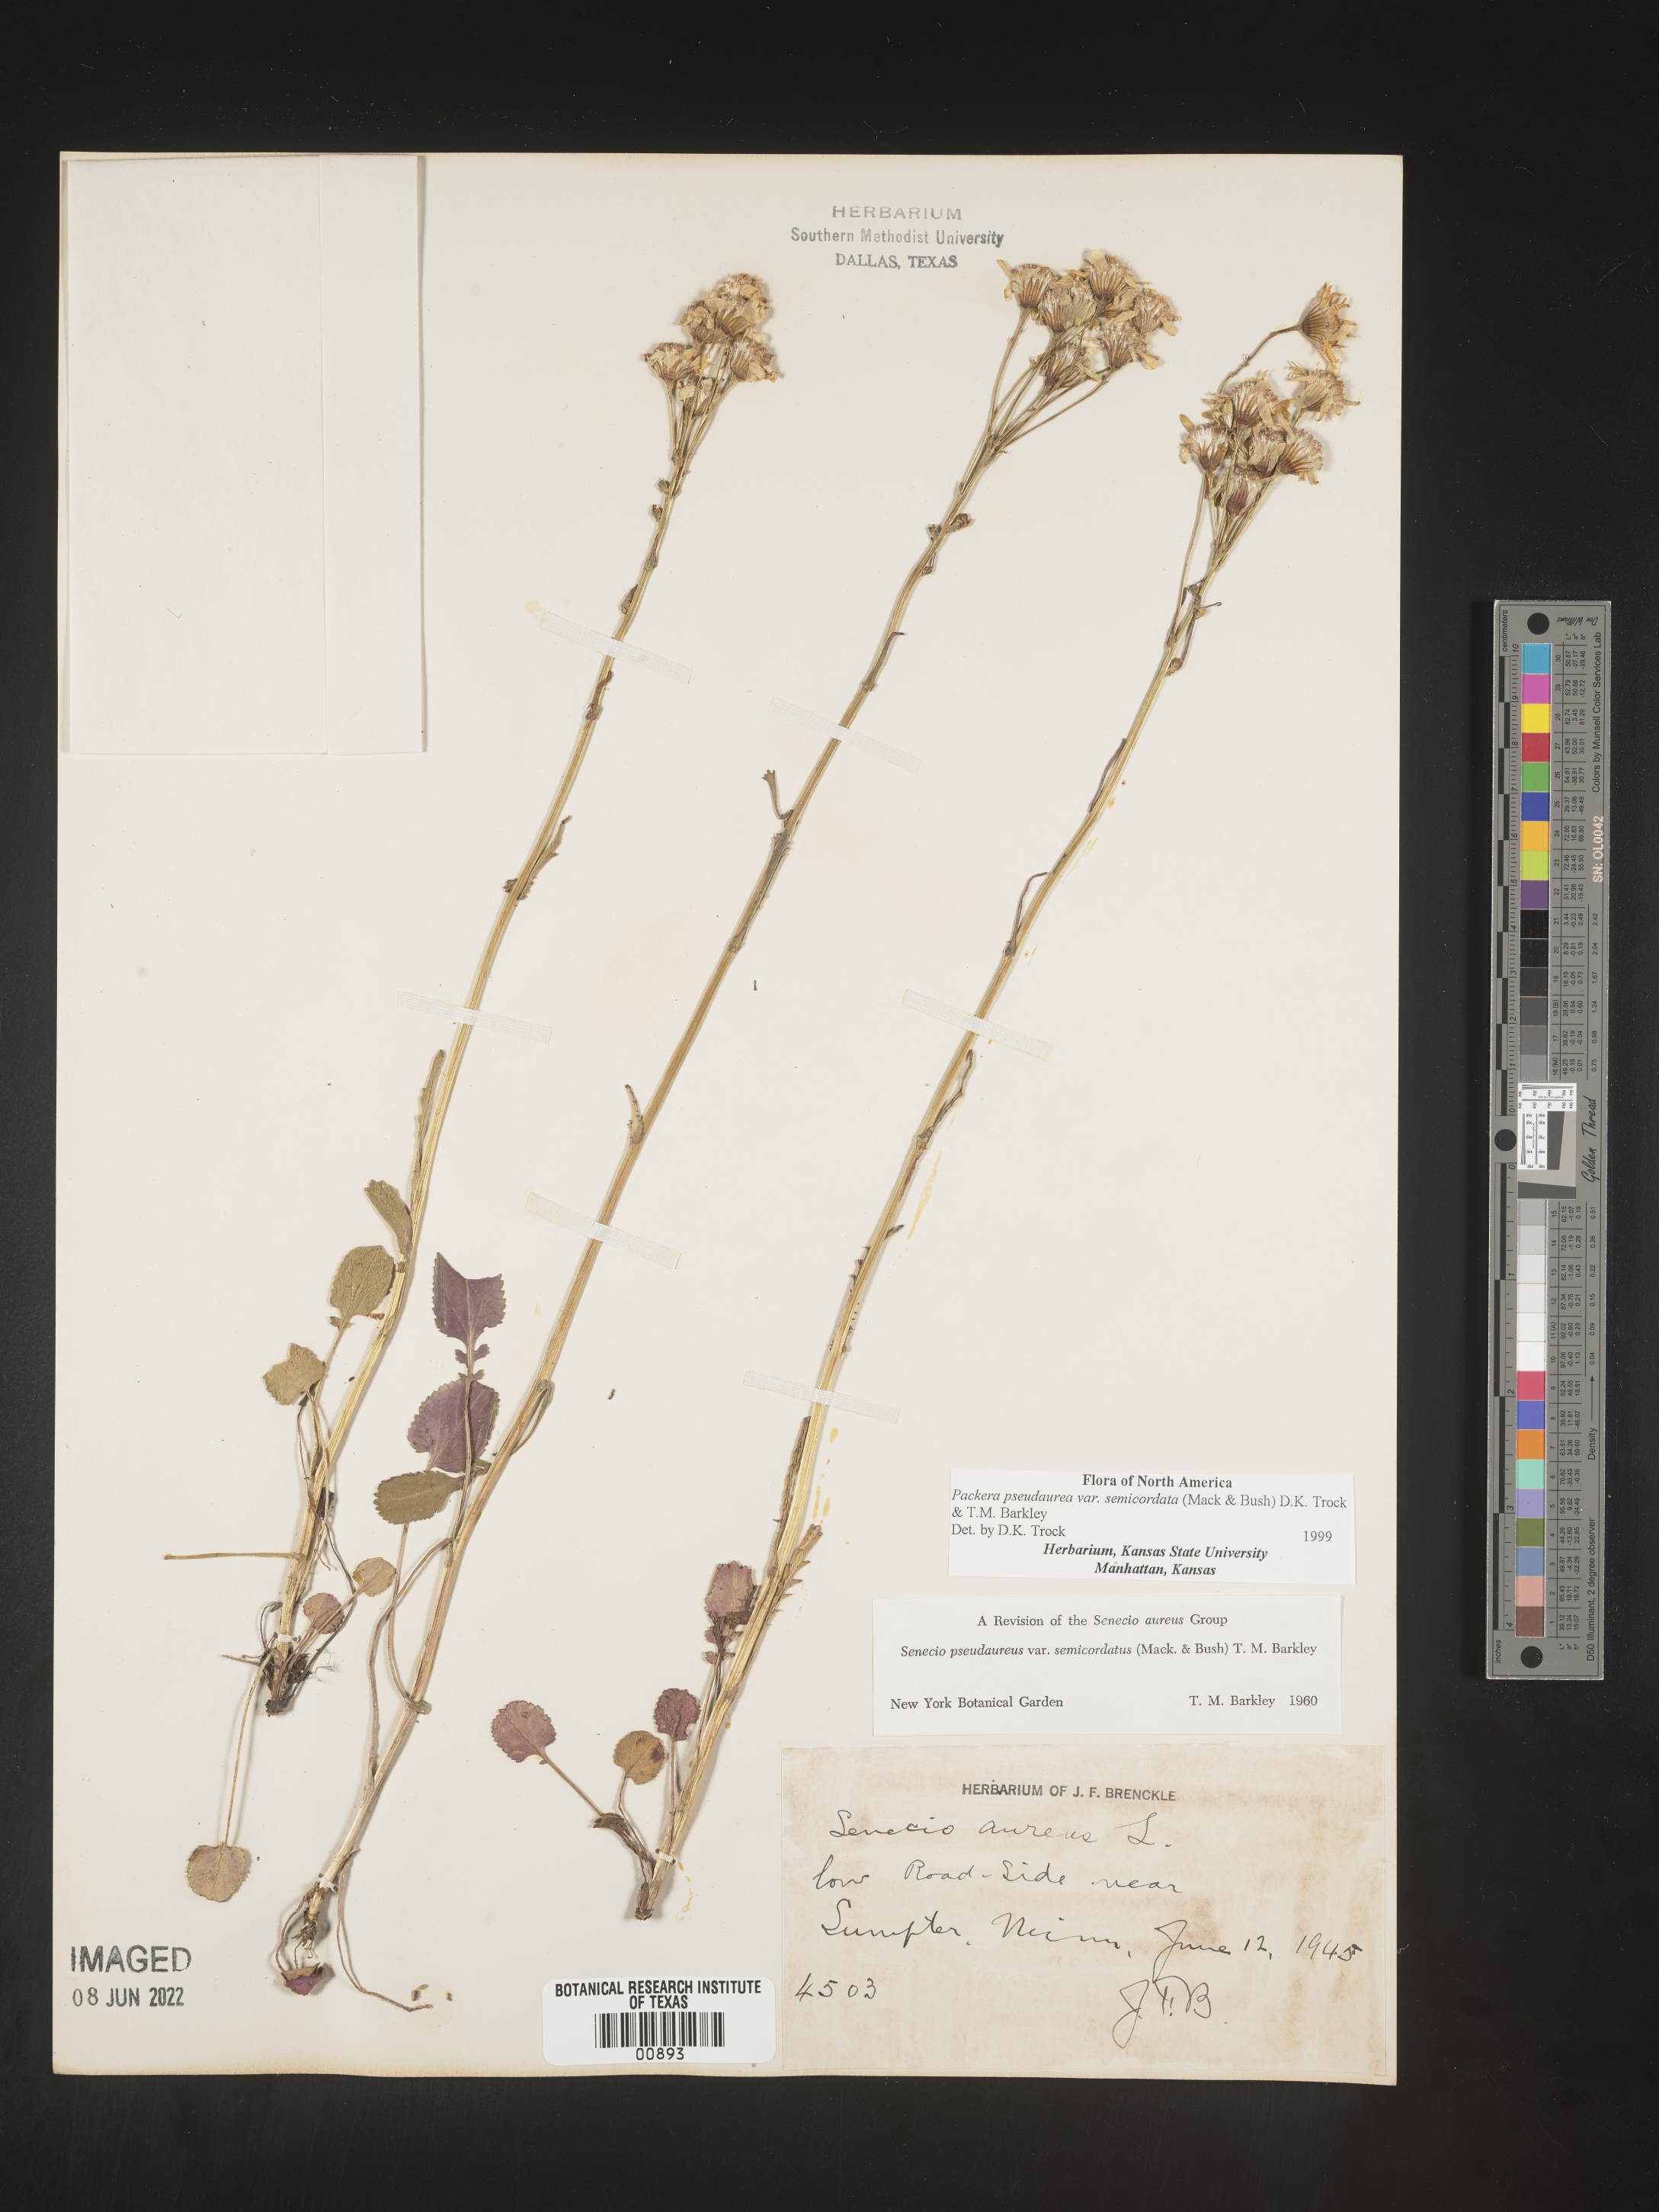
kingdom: Plantae
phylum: Tracheophyta
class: Magnoliopsida
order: Asterales
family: Asteraceae
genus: Packera
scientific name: Packera pseudaurea
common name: False-gold groundsel
